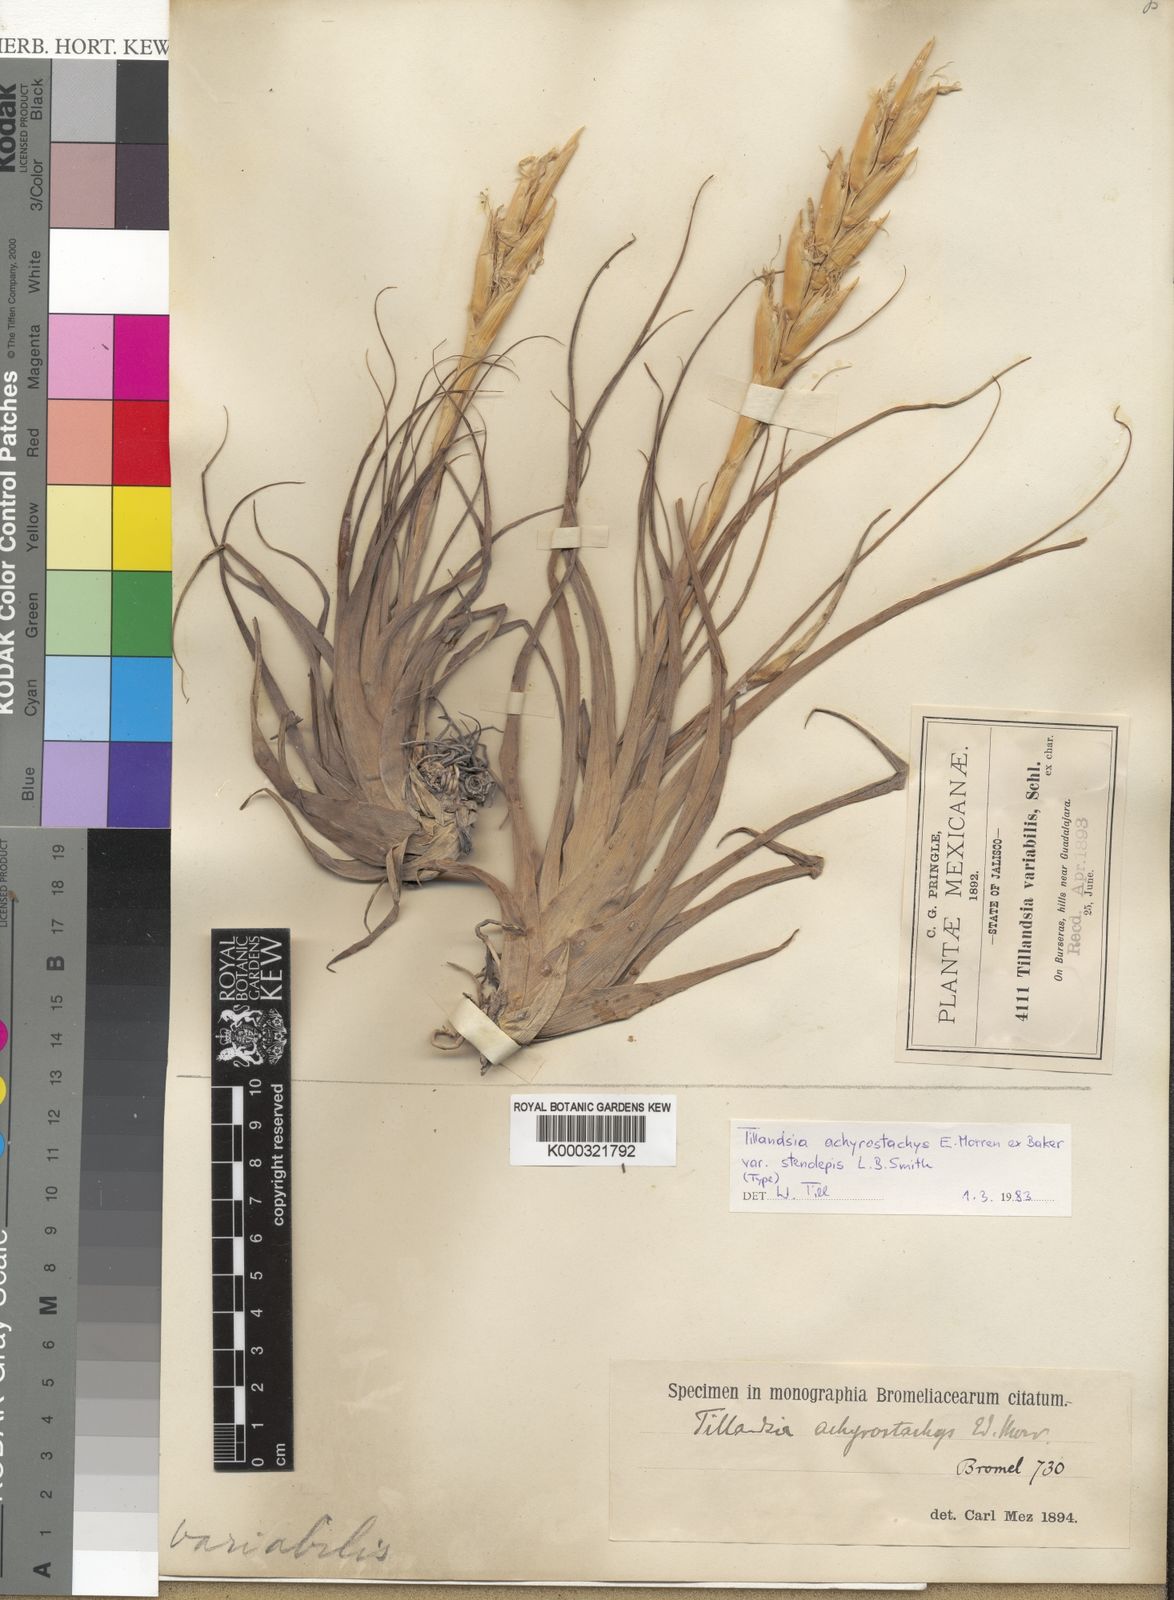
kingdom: Plantae
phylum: Tracheophyta
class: Liliopsida
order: Poales
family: Bromeliaceae
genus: Tillandsia
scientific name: Tillandsia achyrostachys
